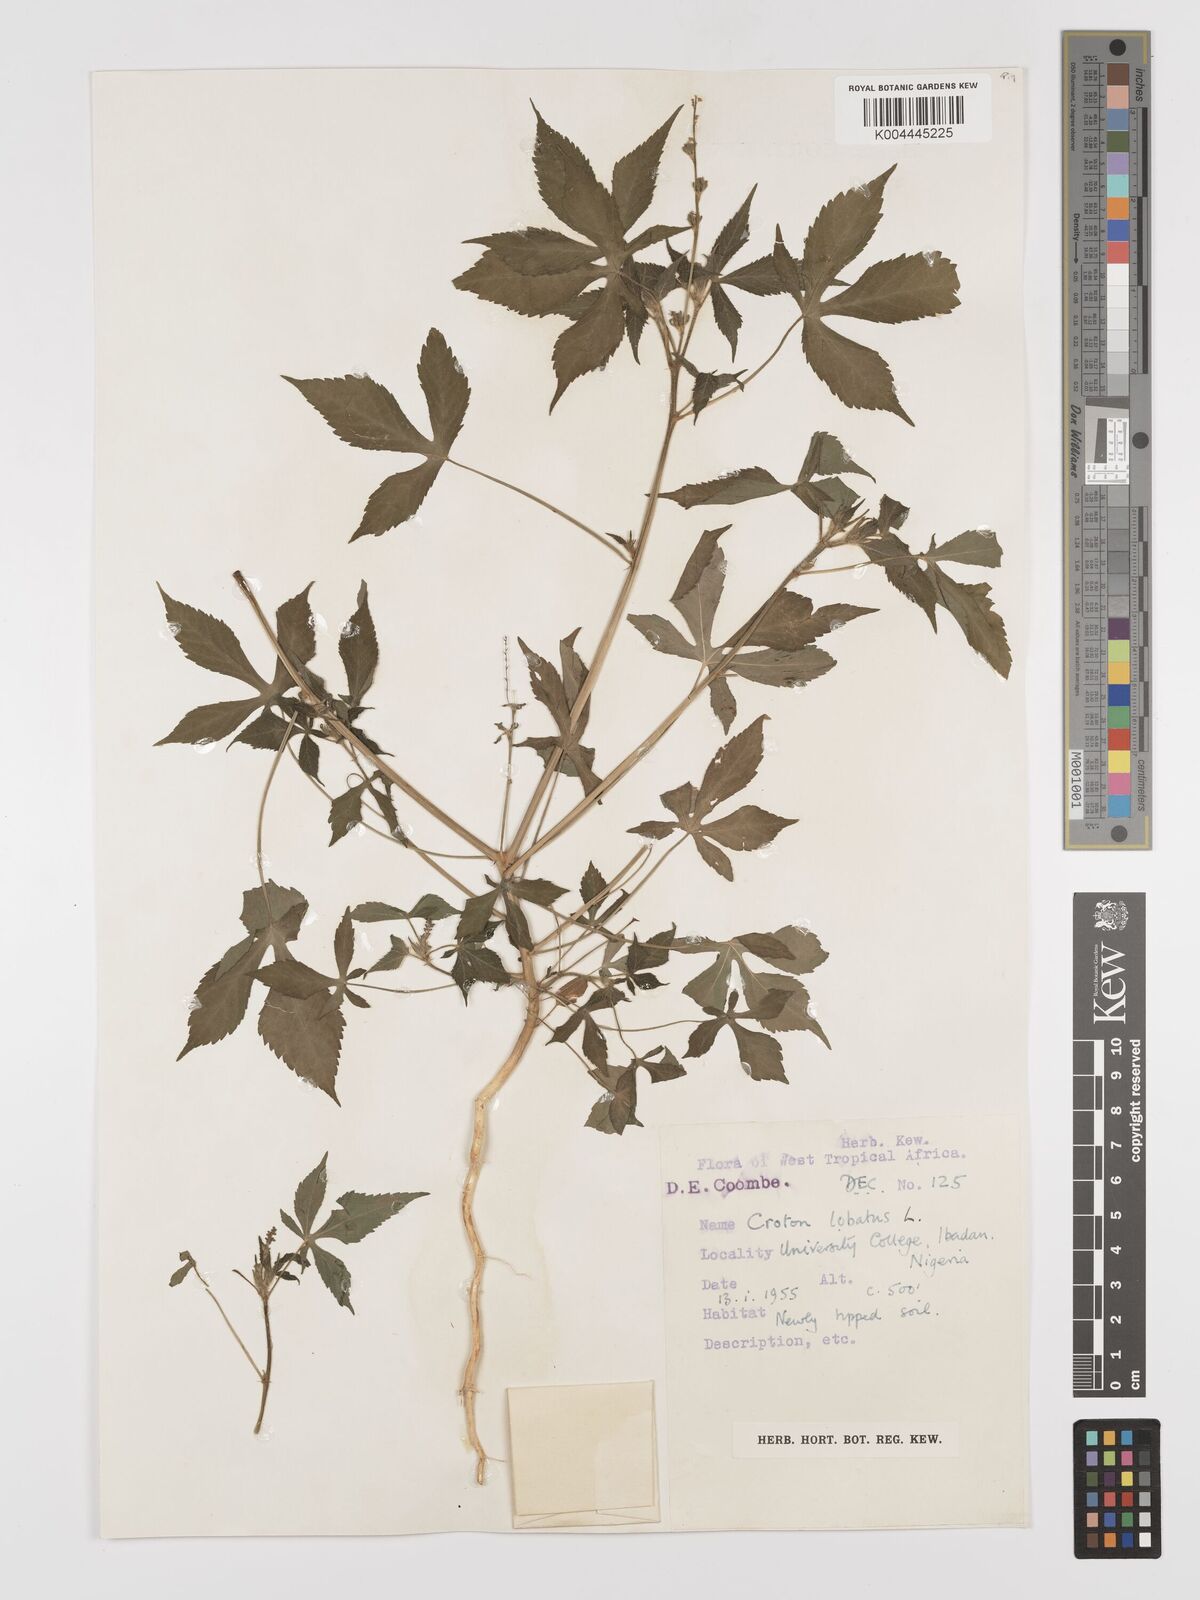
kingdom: Plantae
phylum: Tracheophyta
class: Magnoliopsida
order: Malpighiales
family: Euphorbiaceae
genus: Astraea
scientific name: Astraea lobata
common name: Lobed croton
